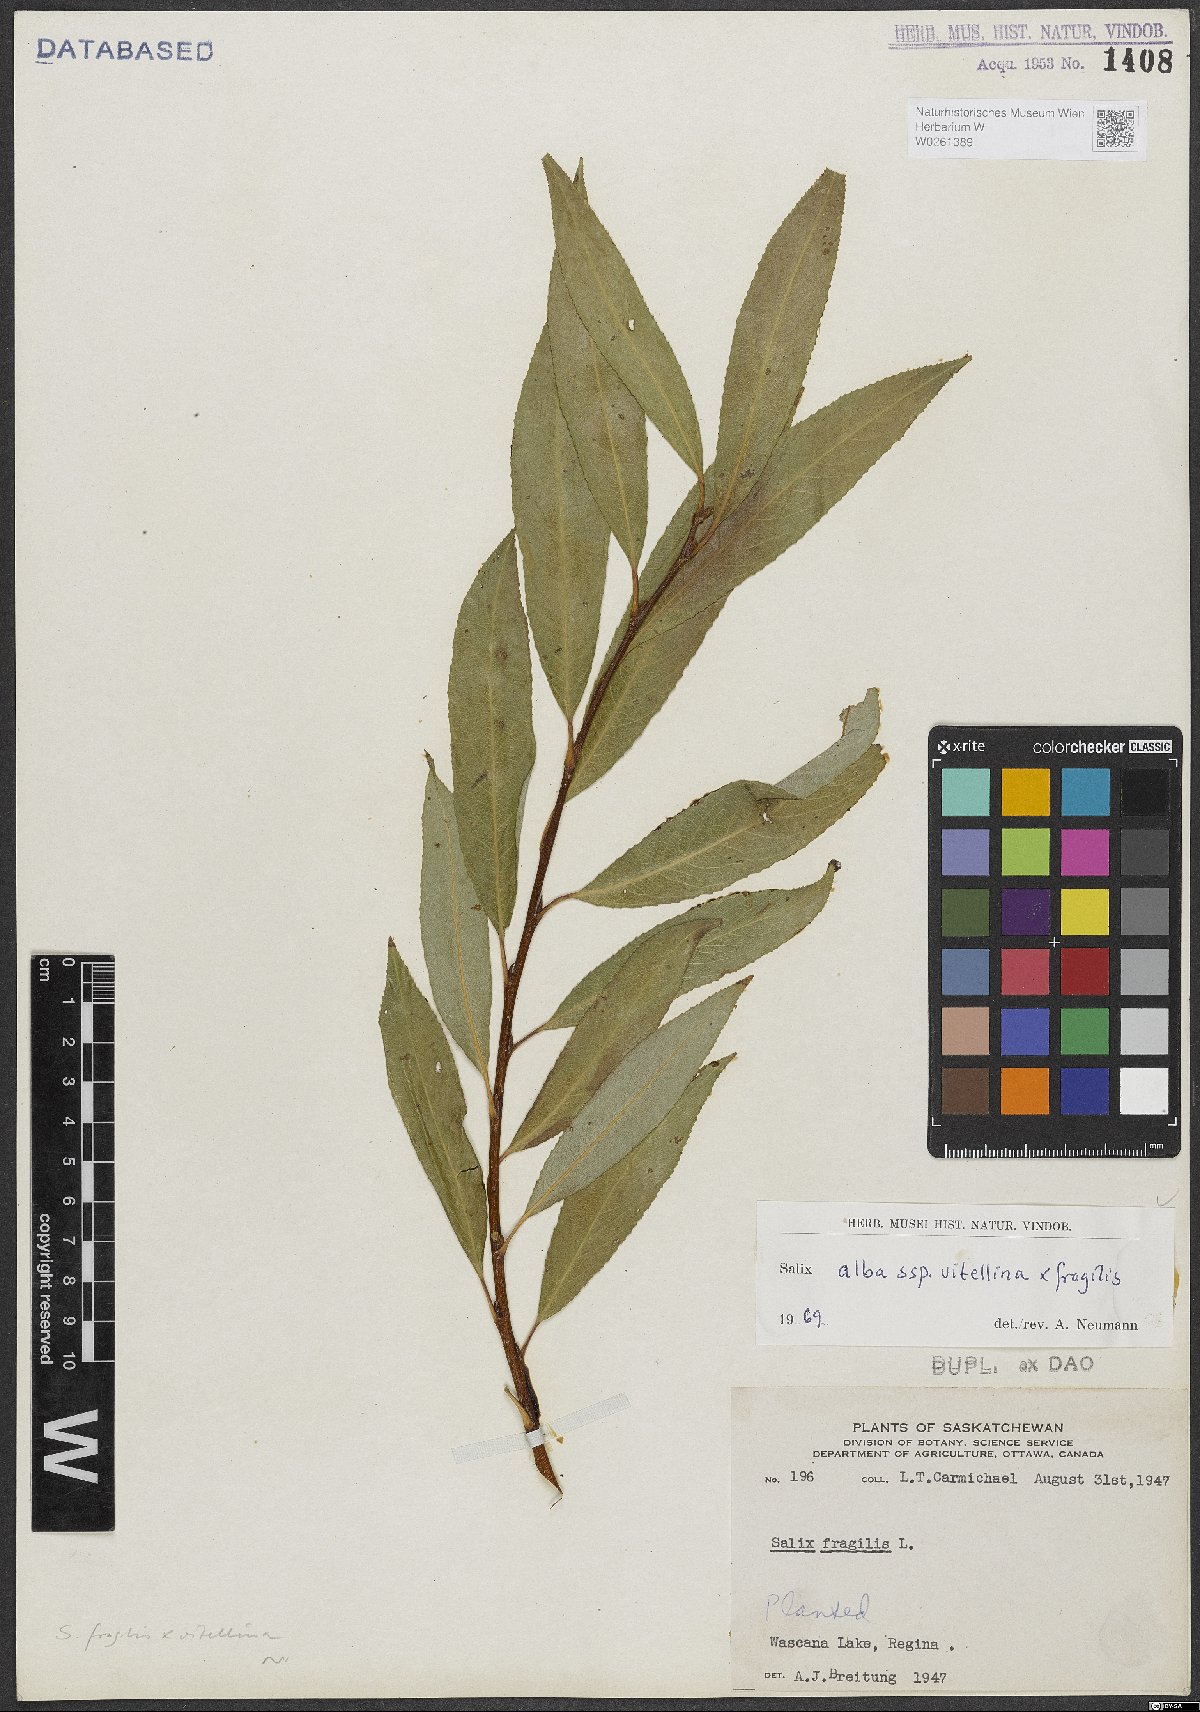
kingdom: Plantae
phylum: Tracheophyta
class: Magnoliopsida
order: Malpighiales
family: Salicaceae
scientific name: Salicaceae
